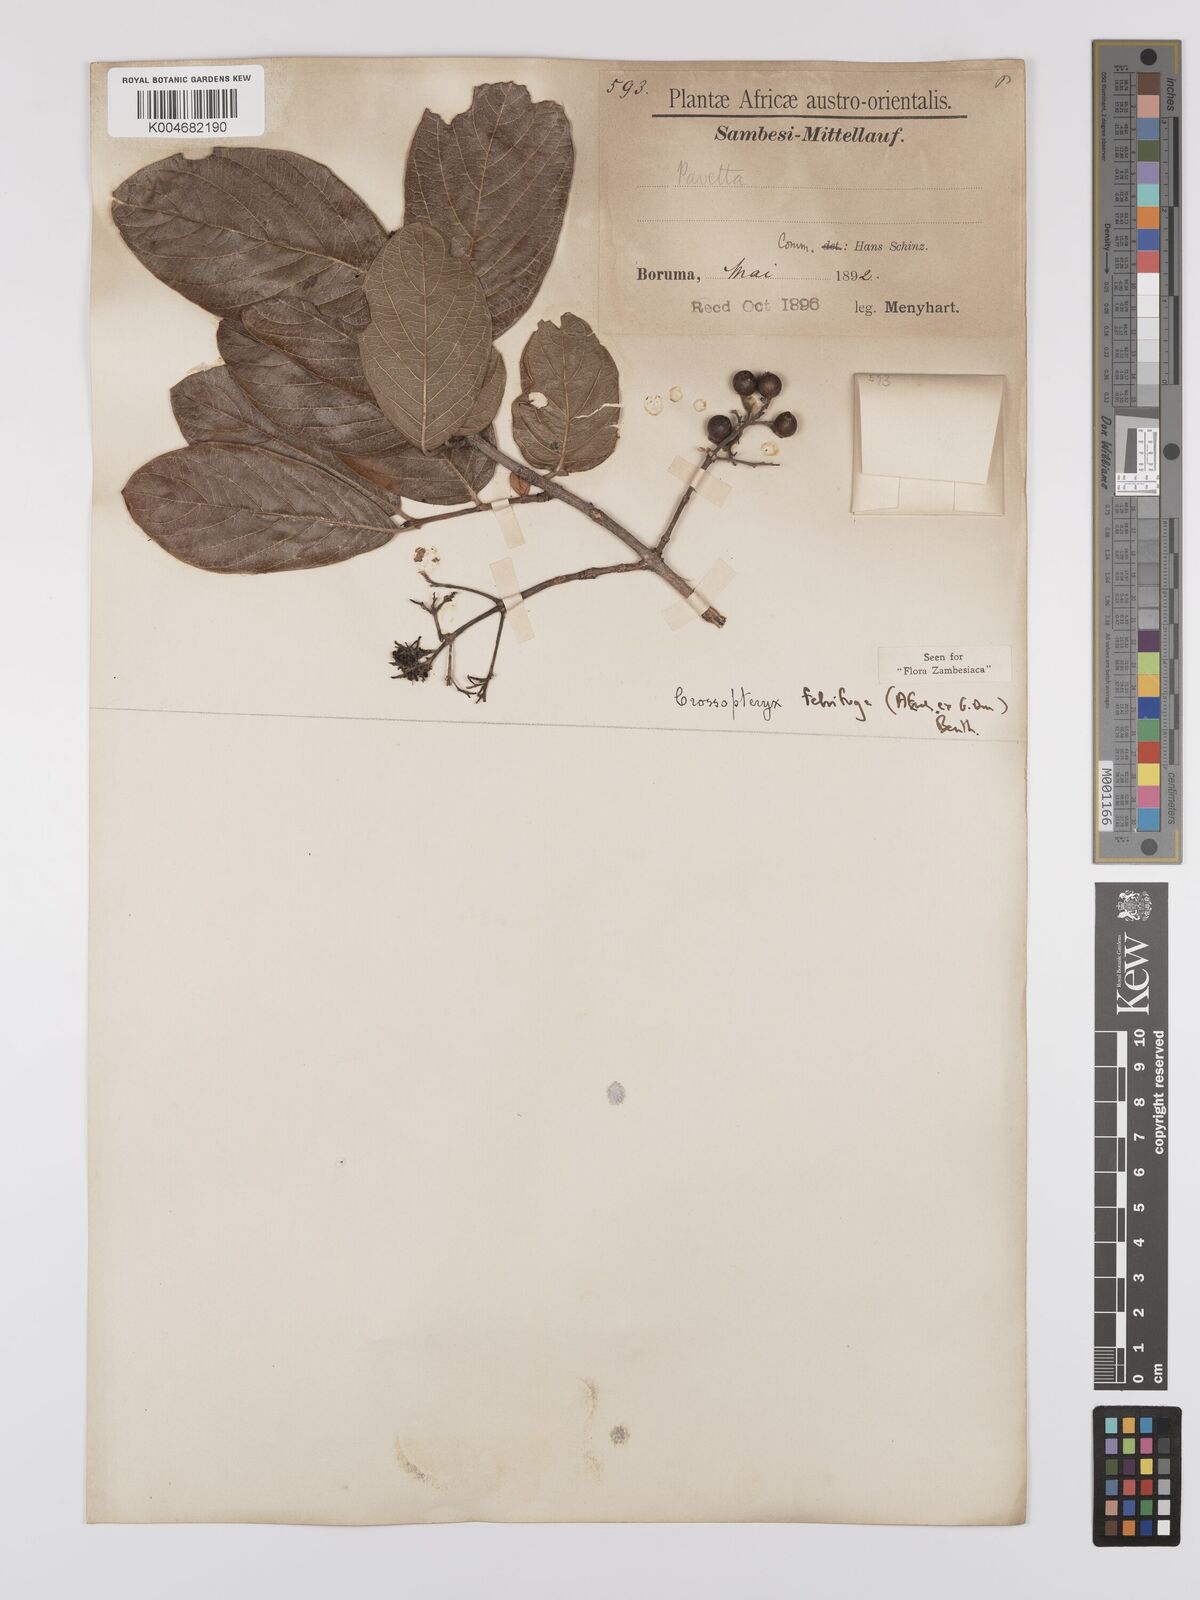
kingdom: Plantae
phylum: Tracheophyta
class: Magnoliopsida
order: Gentianales
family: Rubiaceae
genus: Crossopteryx
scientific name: Crossopteryx febrifuga
